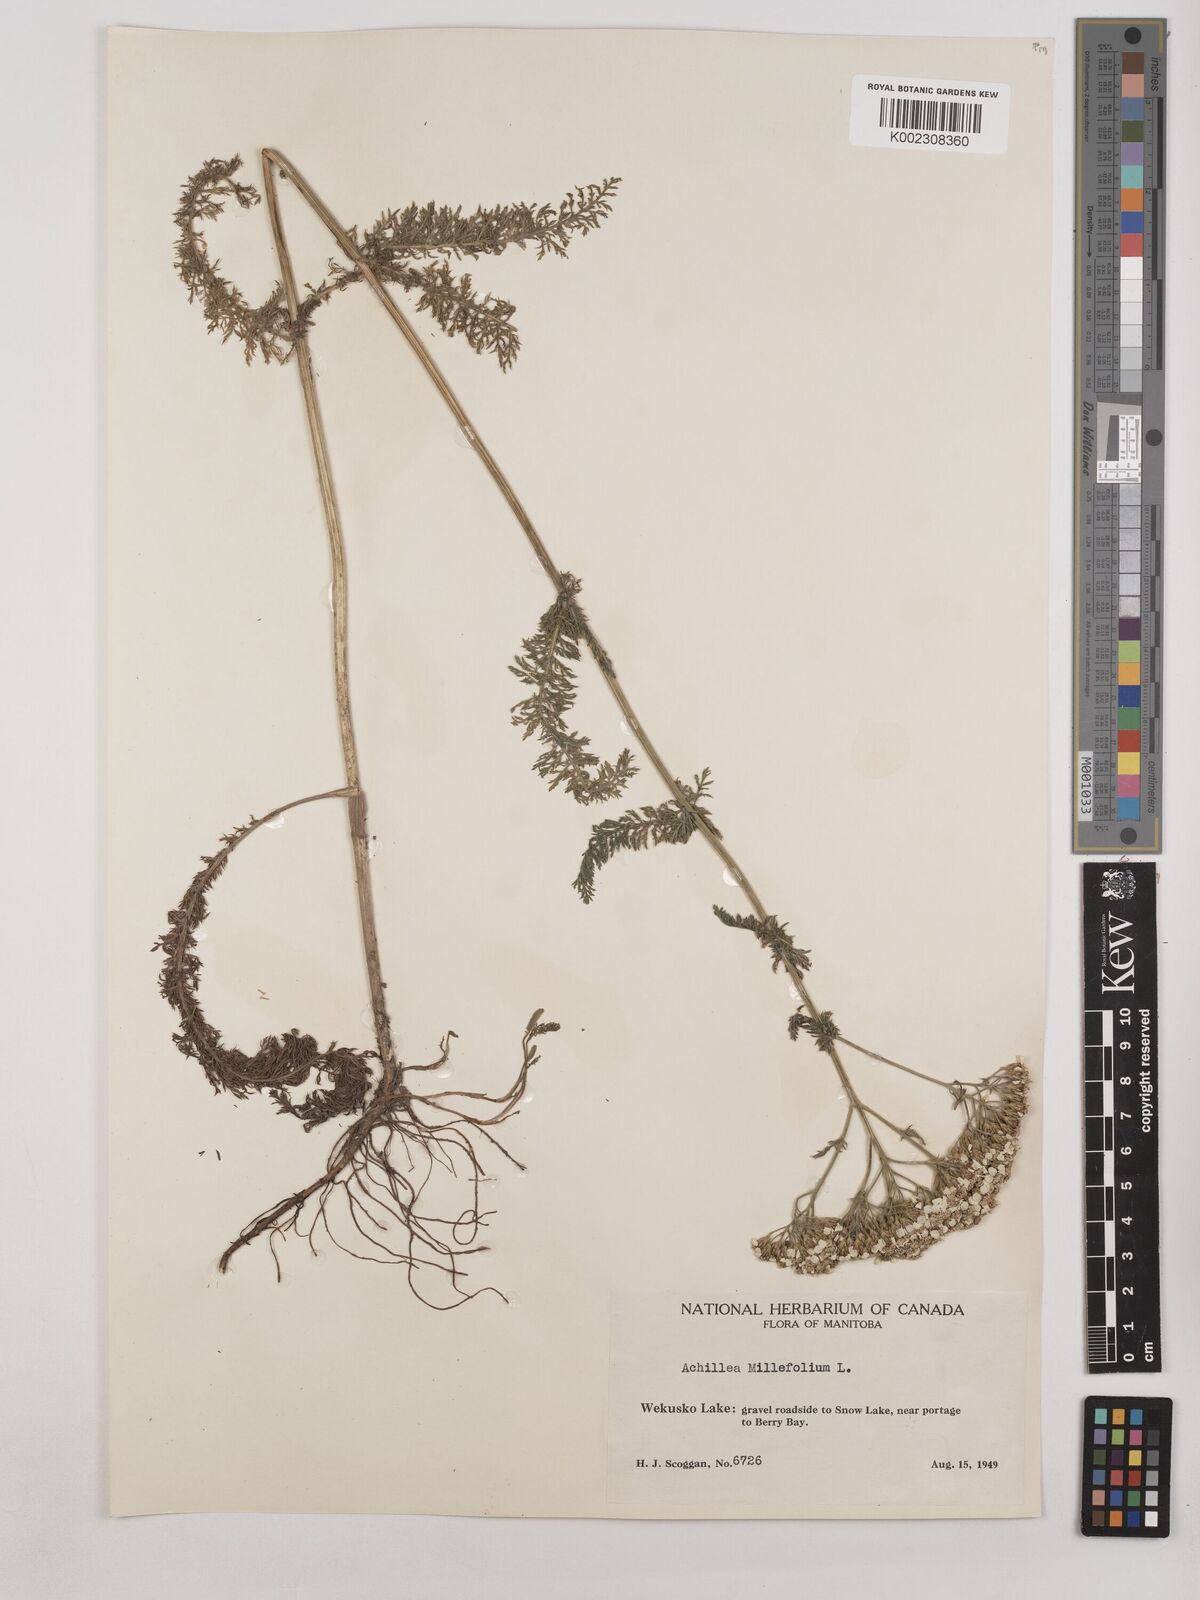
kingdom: Plantae
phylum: Tracheophyta
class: Magnoliopsida
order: Asterales
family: Asteraceae
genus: Achillea
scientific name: Achillea millefolium
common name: Yarrow
